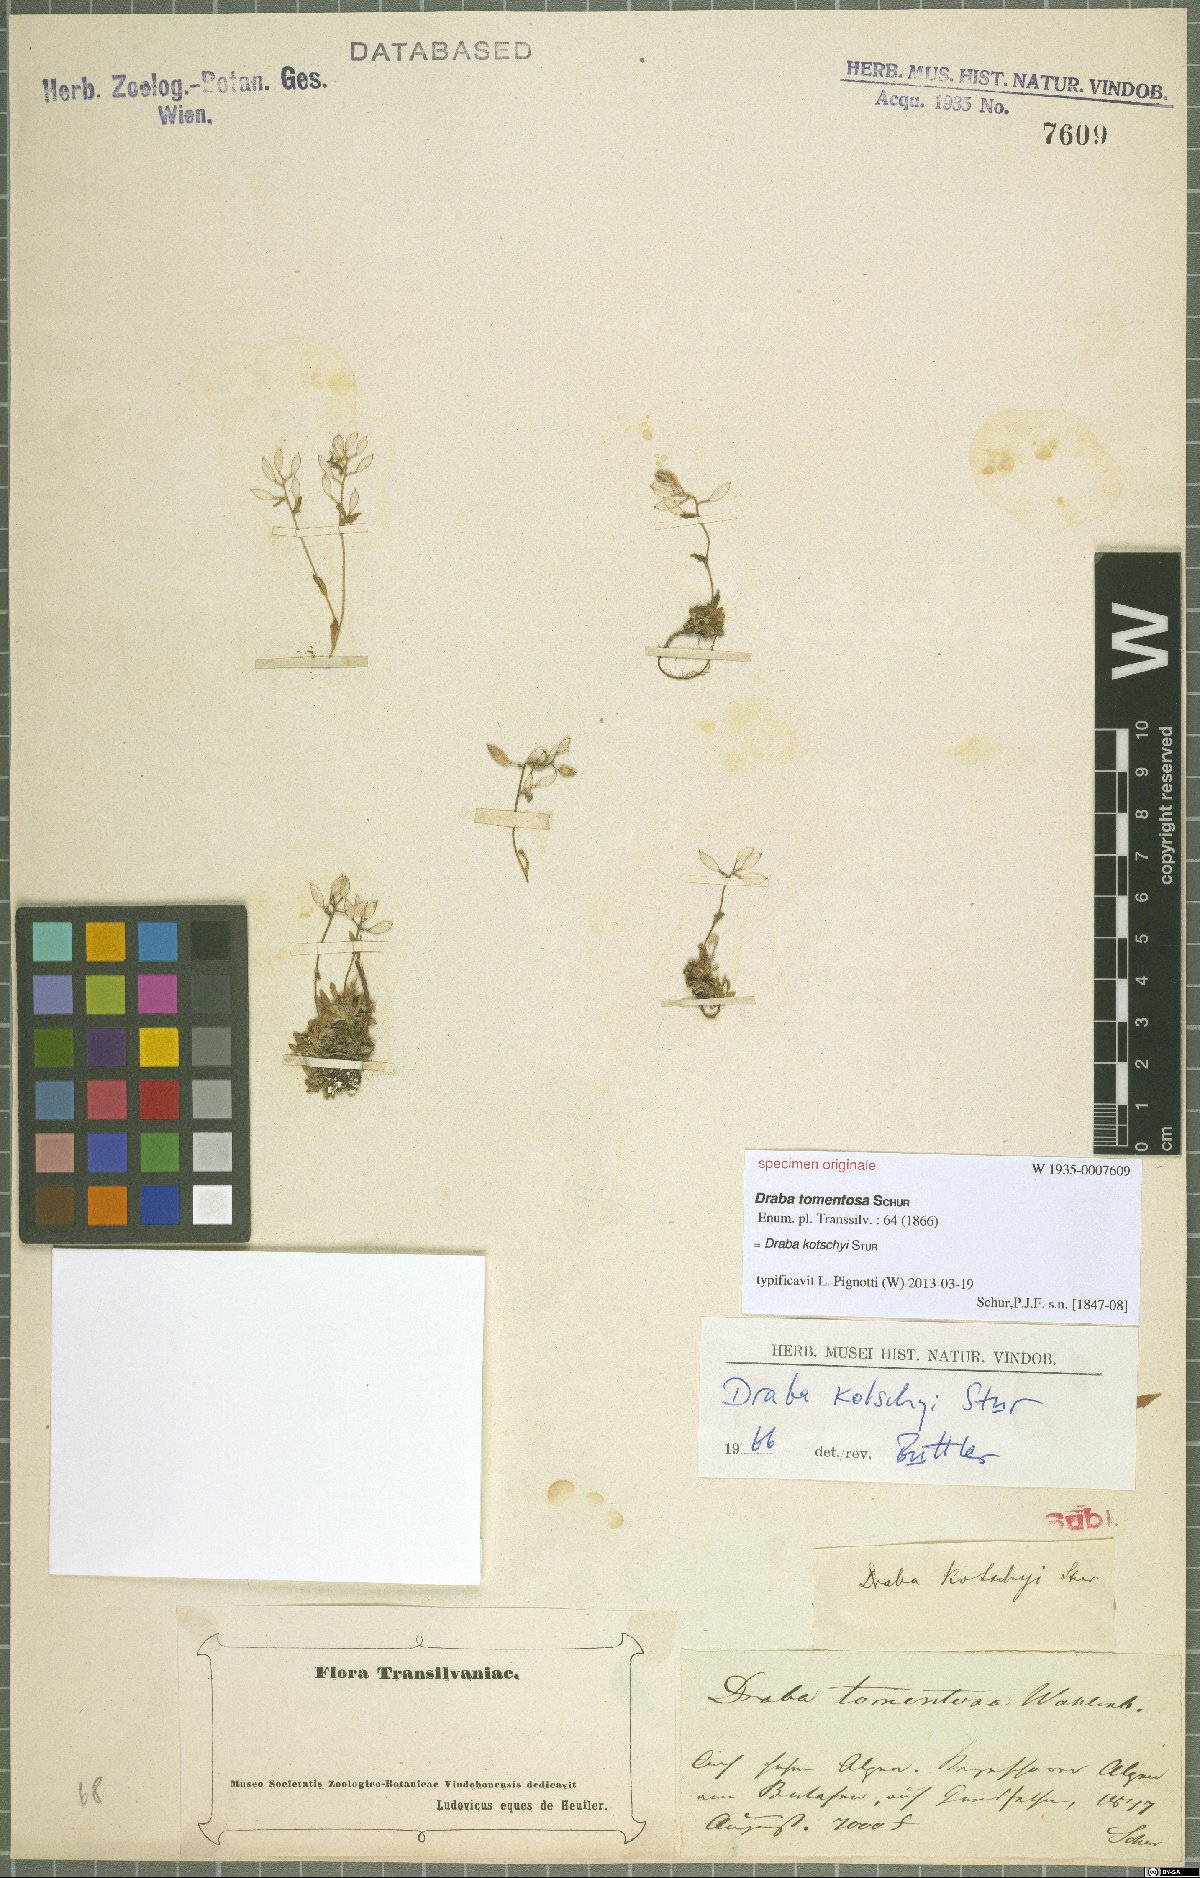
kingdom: Plantae
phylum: Tracheophyta
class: Magnoliopsida
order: Brassicales
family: Brassicaceae
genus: Draba
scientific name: Draba kotschyi
